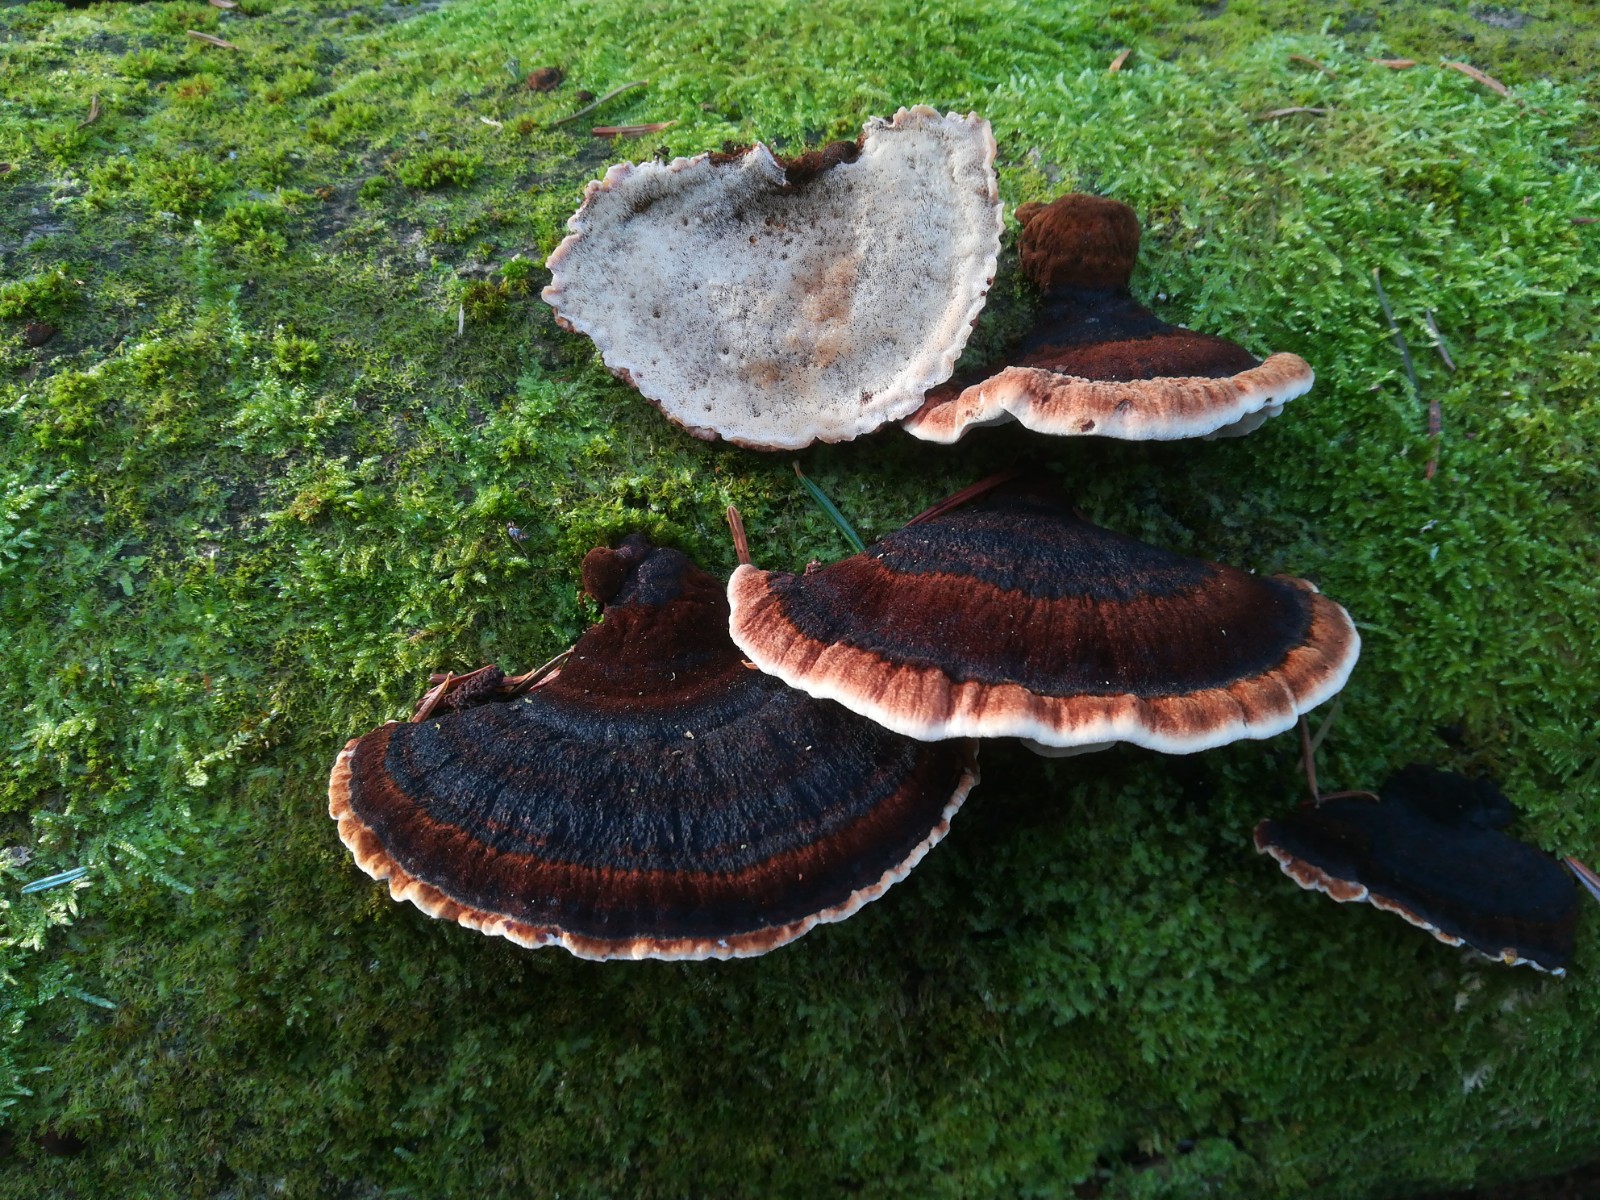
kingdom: Fungi
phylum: Basidiomycota
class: Agaricomycetes
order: Polyporales
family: Ischnodermataceae
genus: Ischnoderma
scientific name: Ischnoderma benzoinum
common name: gran-tjæreporesvamp
